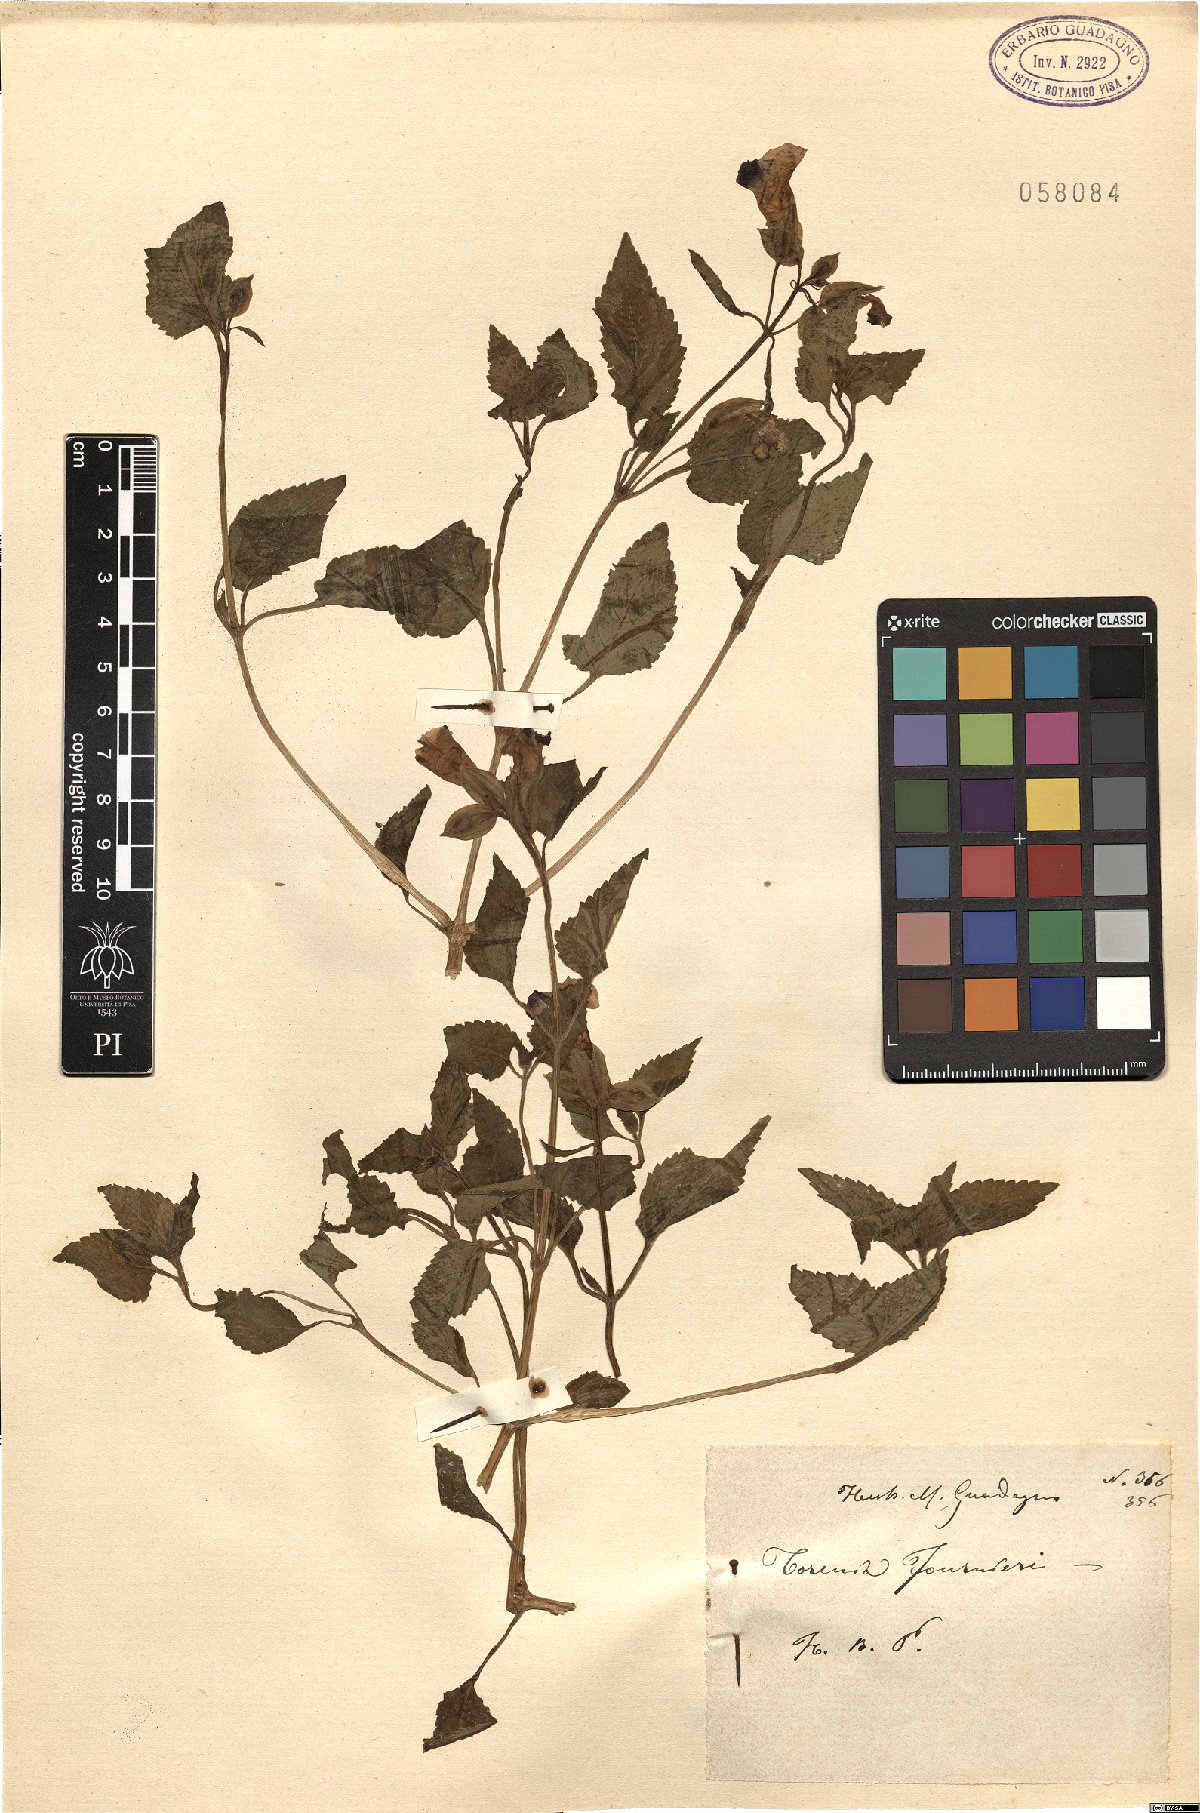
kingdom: Plantae
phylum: Tracheophyta
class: Magnoliopsida
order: Lamiales
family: Linderniaceae
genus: Torenia
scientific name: Torenia fournieri
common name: Bluewings
